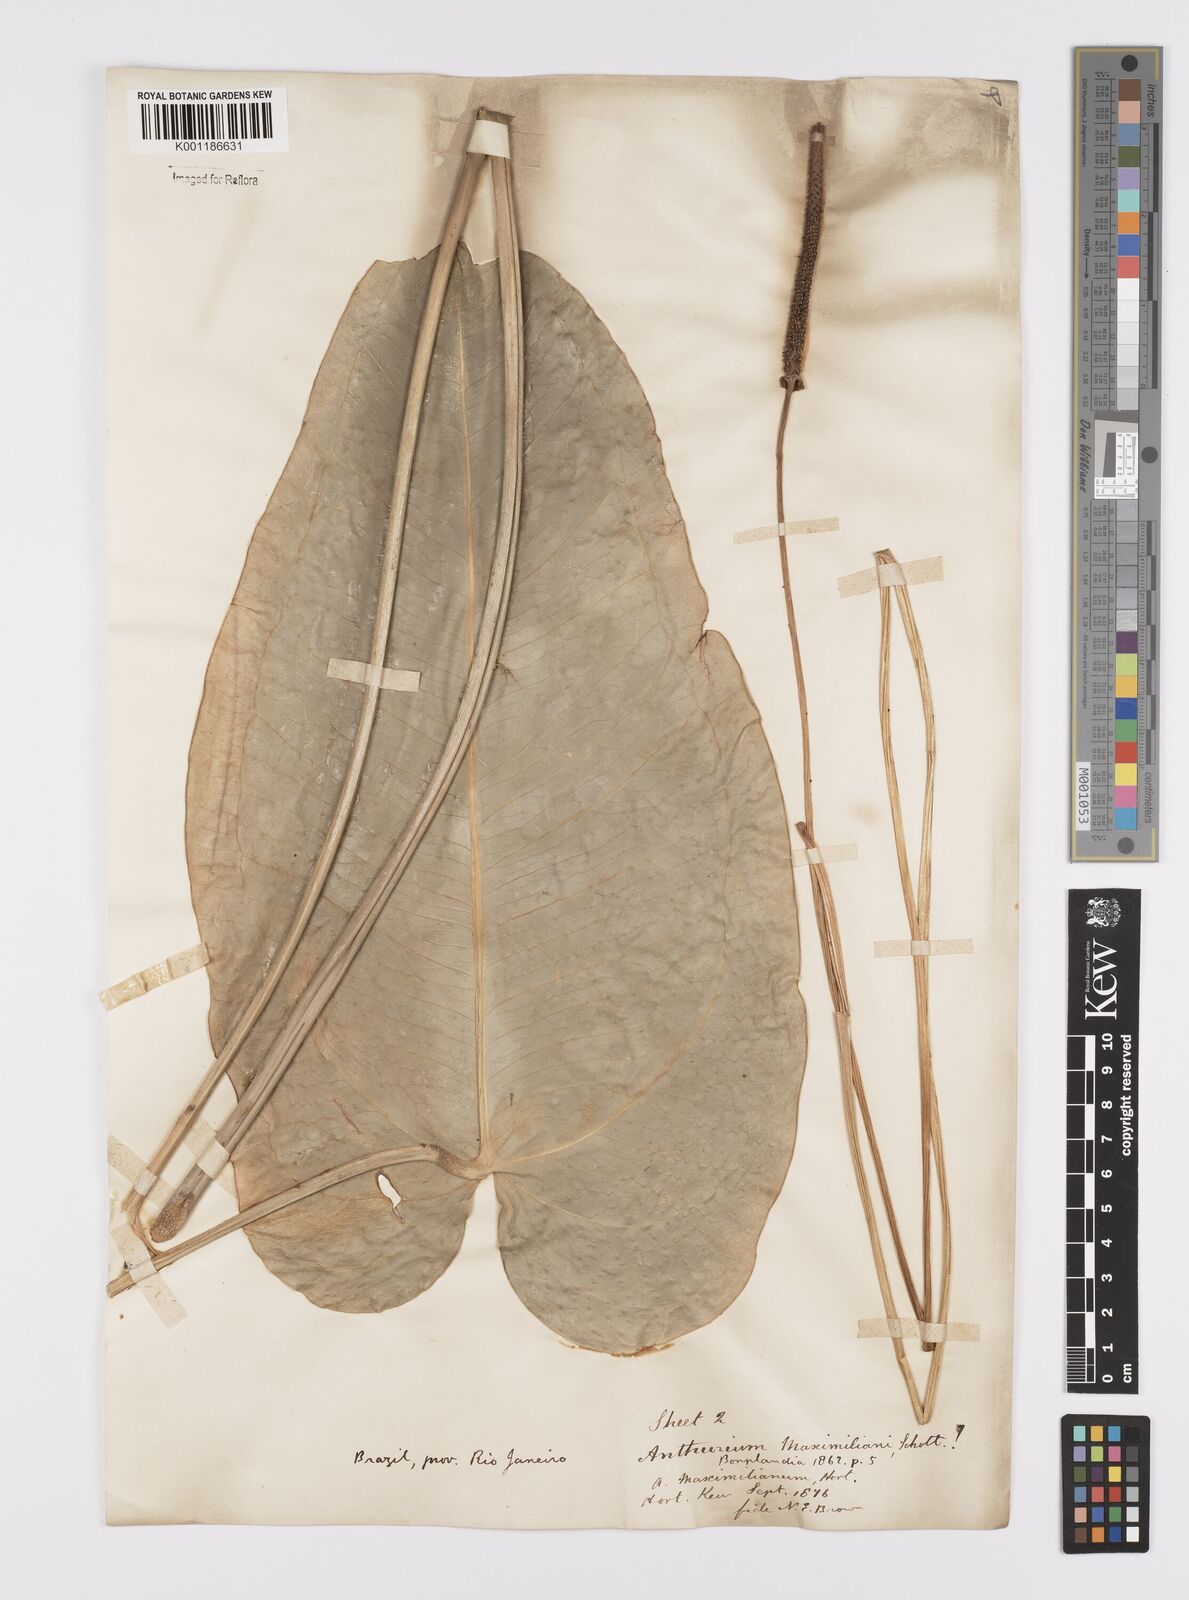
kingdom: Plantae
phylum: Tracheophyta
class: Liliopsida
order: Alismatales
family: Araceae
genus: Anthurium
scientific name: Anthurium augustinum
